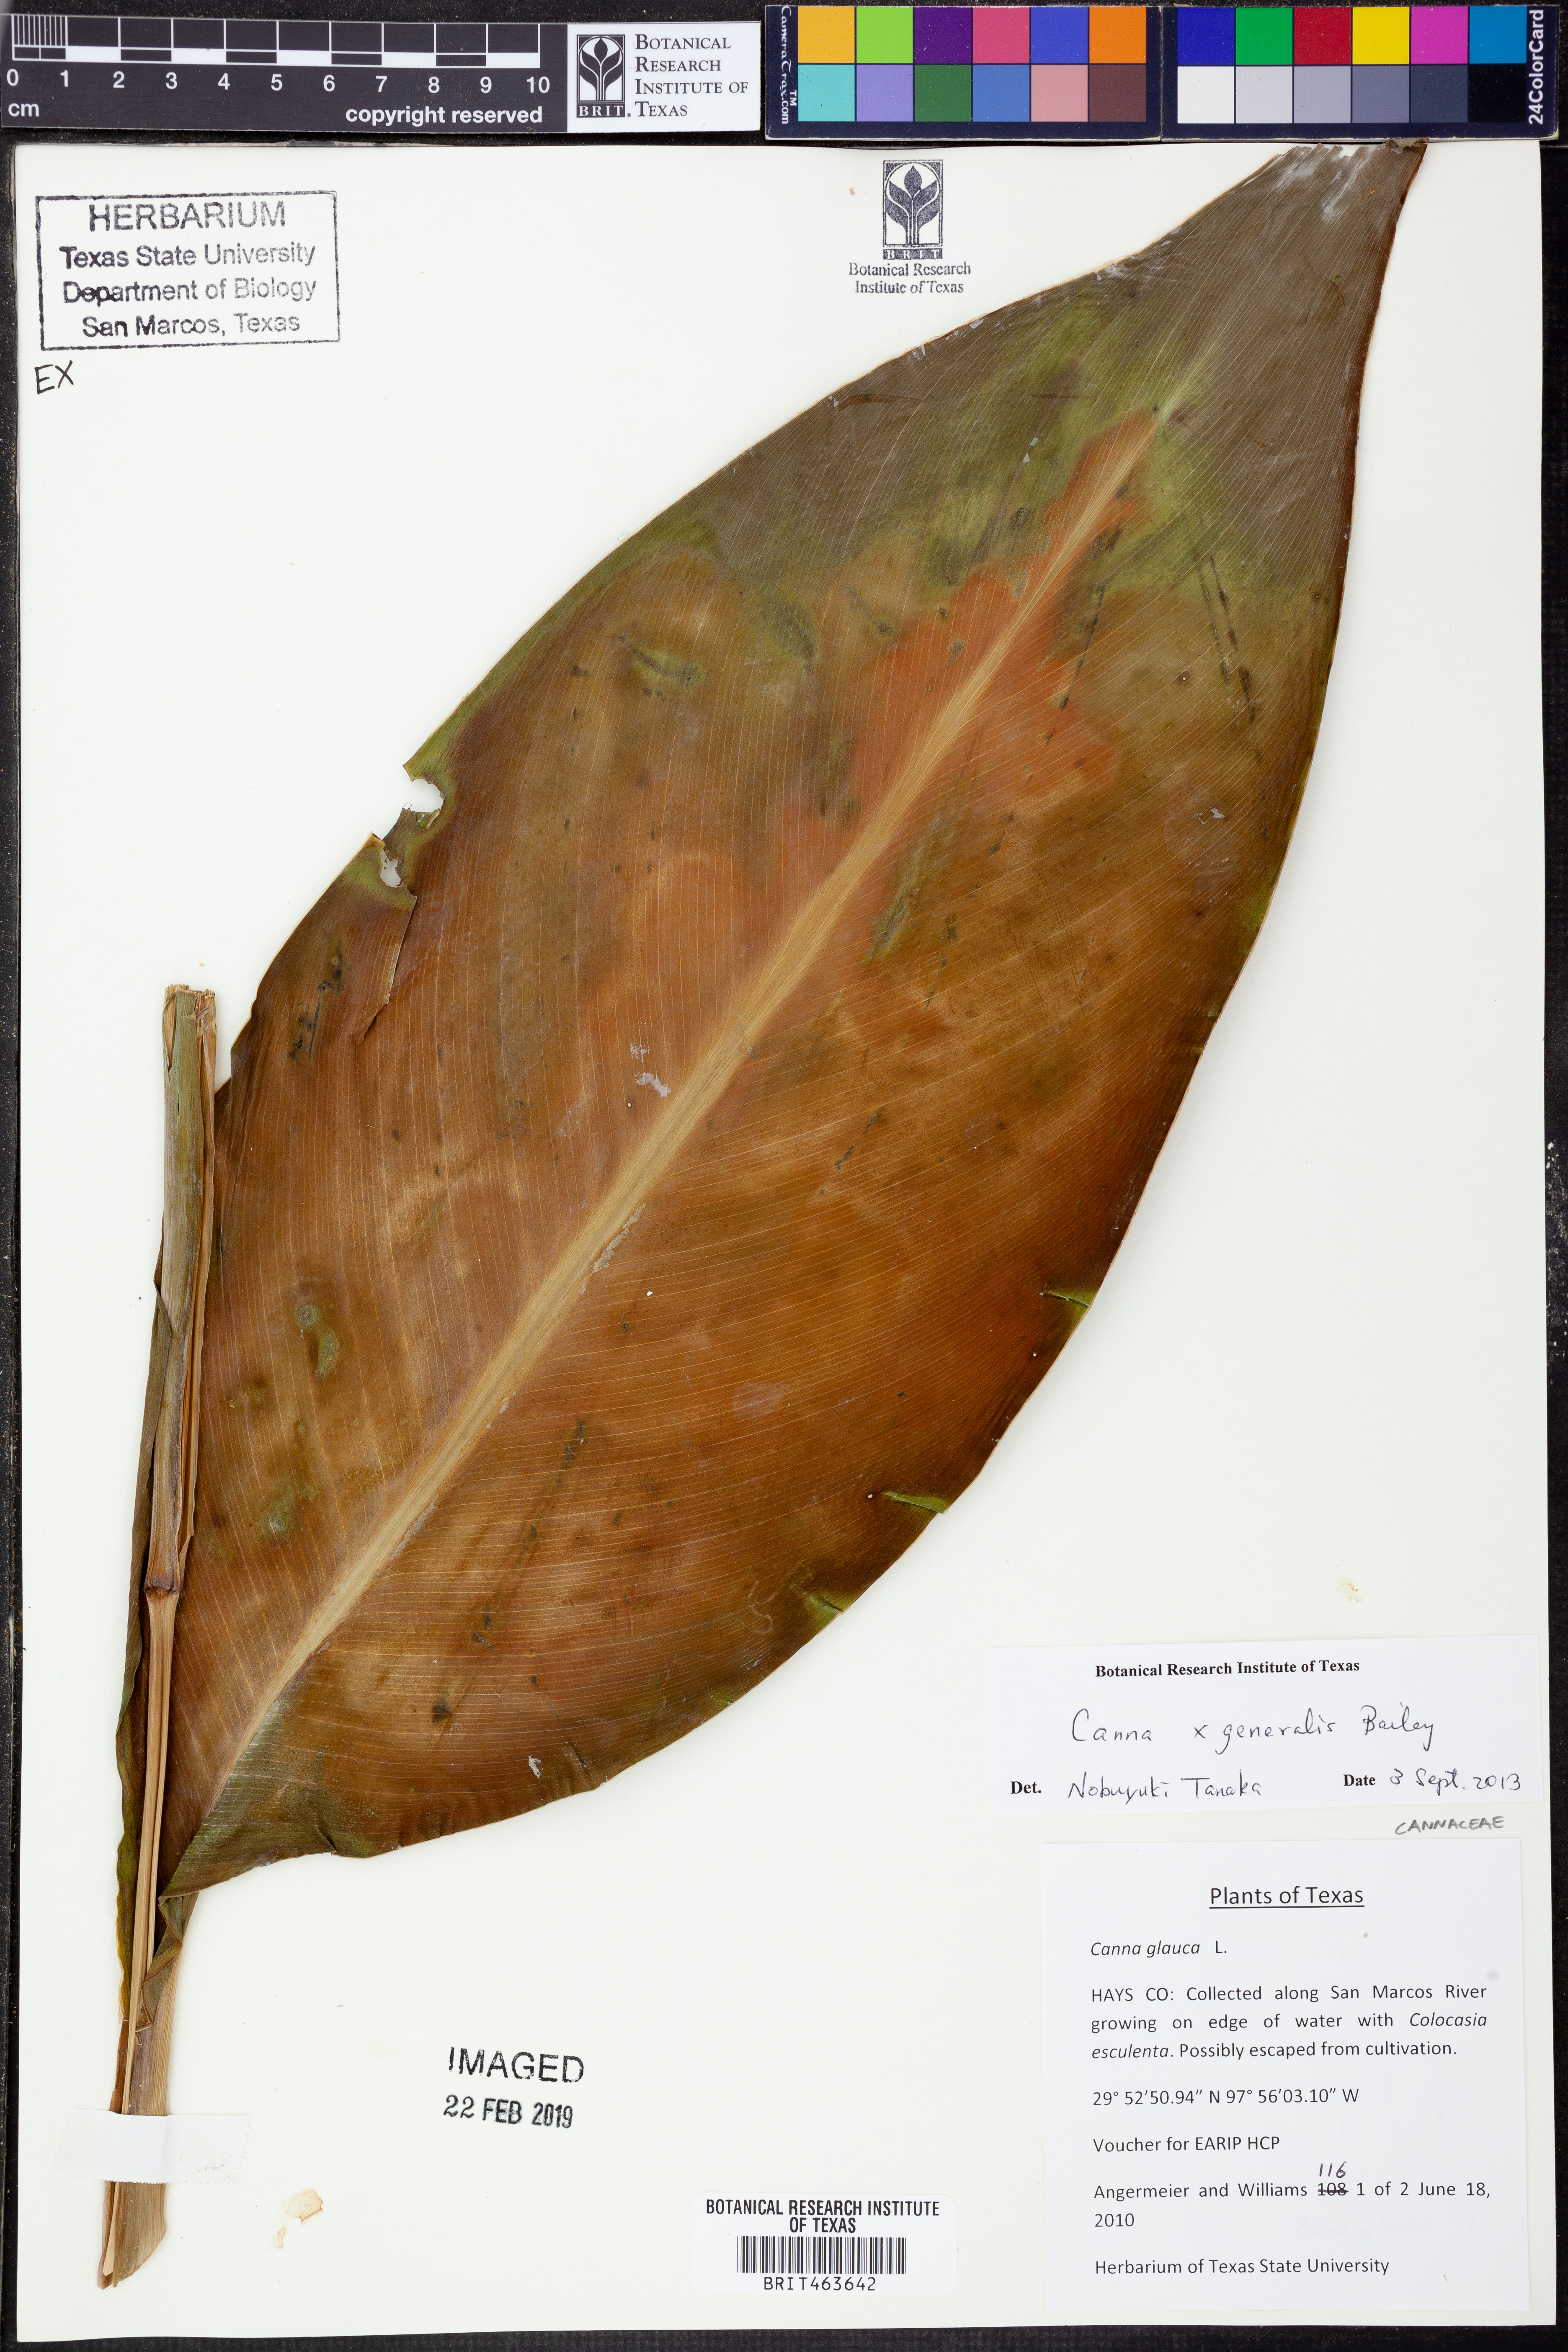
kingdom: Plantae
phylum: Tracheophyta
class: Liliopsida
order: Zingiberales
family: Cannaceae
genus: Canna
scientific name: Canna hybrida
